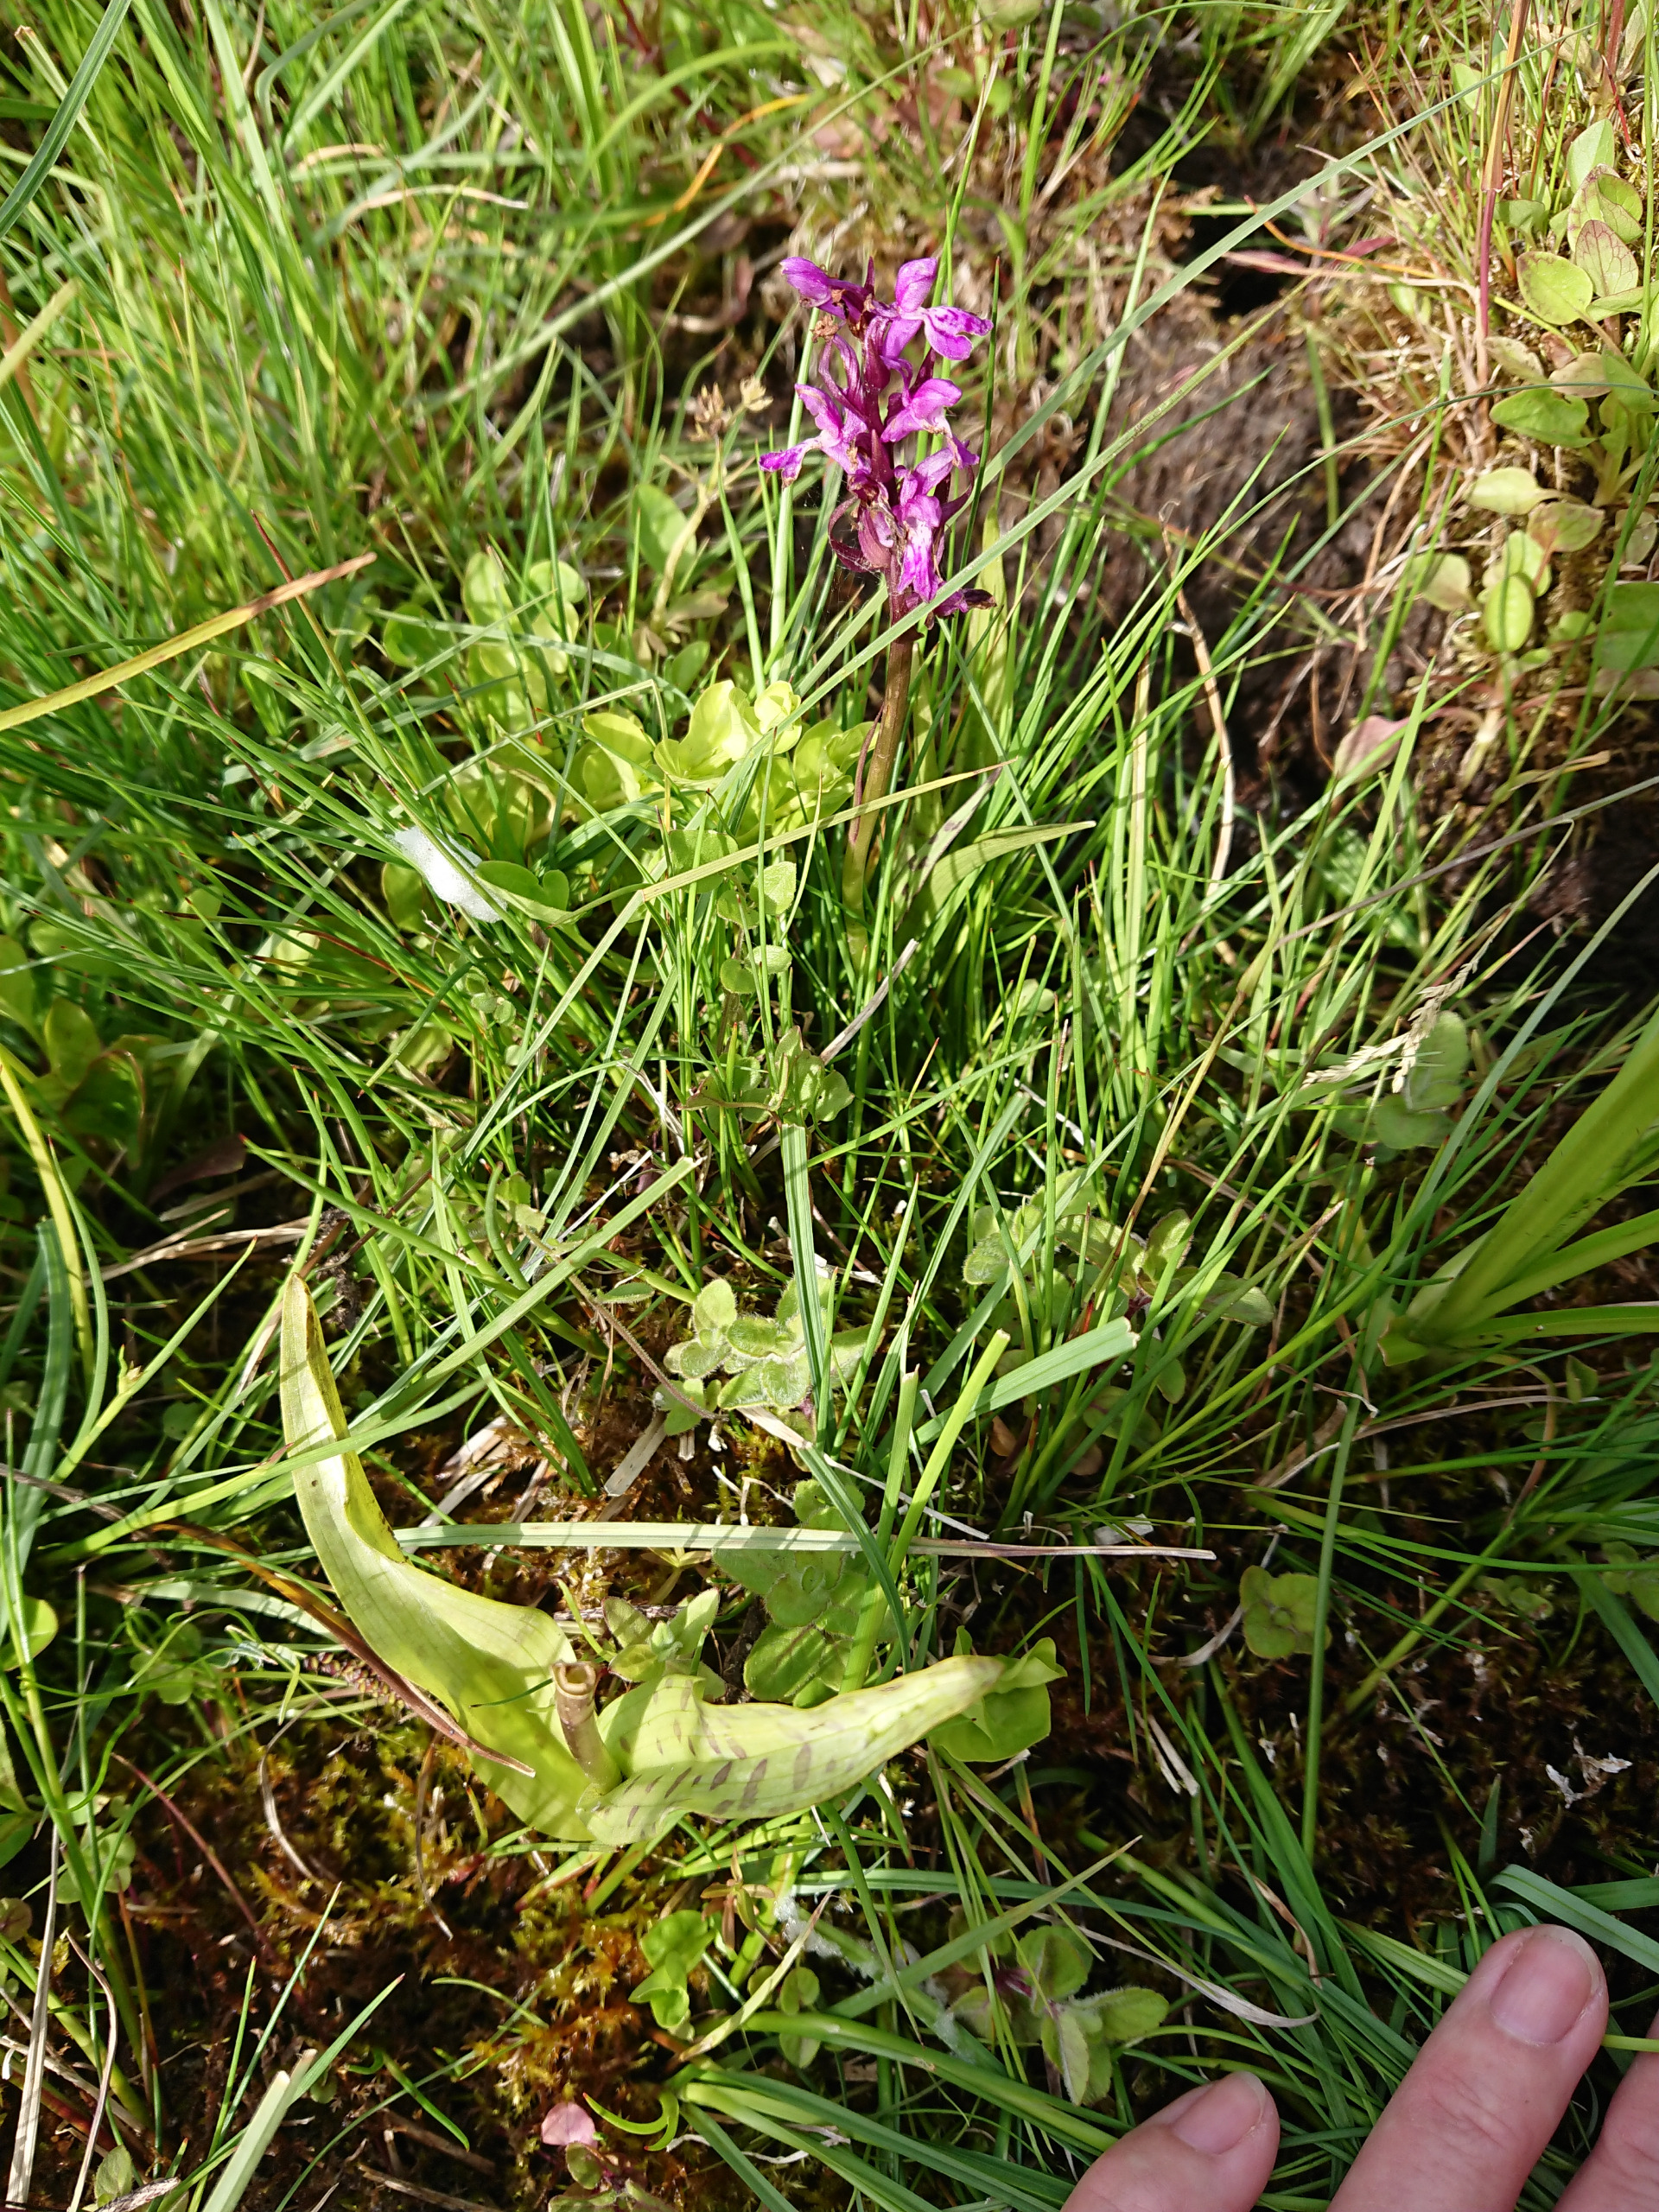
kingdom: Plantae
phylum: Tracheophyta
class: Liliopsida
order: Asparagales
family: Orchidaceae
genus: Dactylorhiza
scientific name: Dactylorhiza majalis
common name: Maj-gøgeurt
